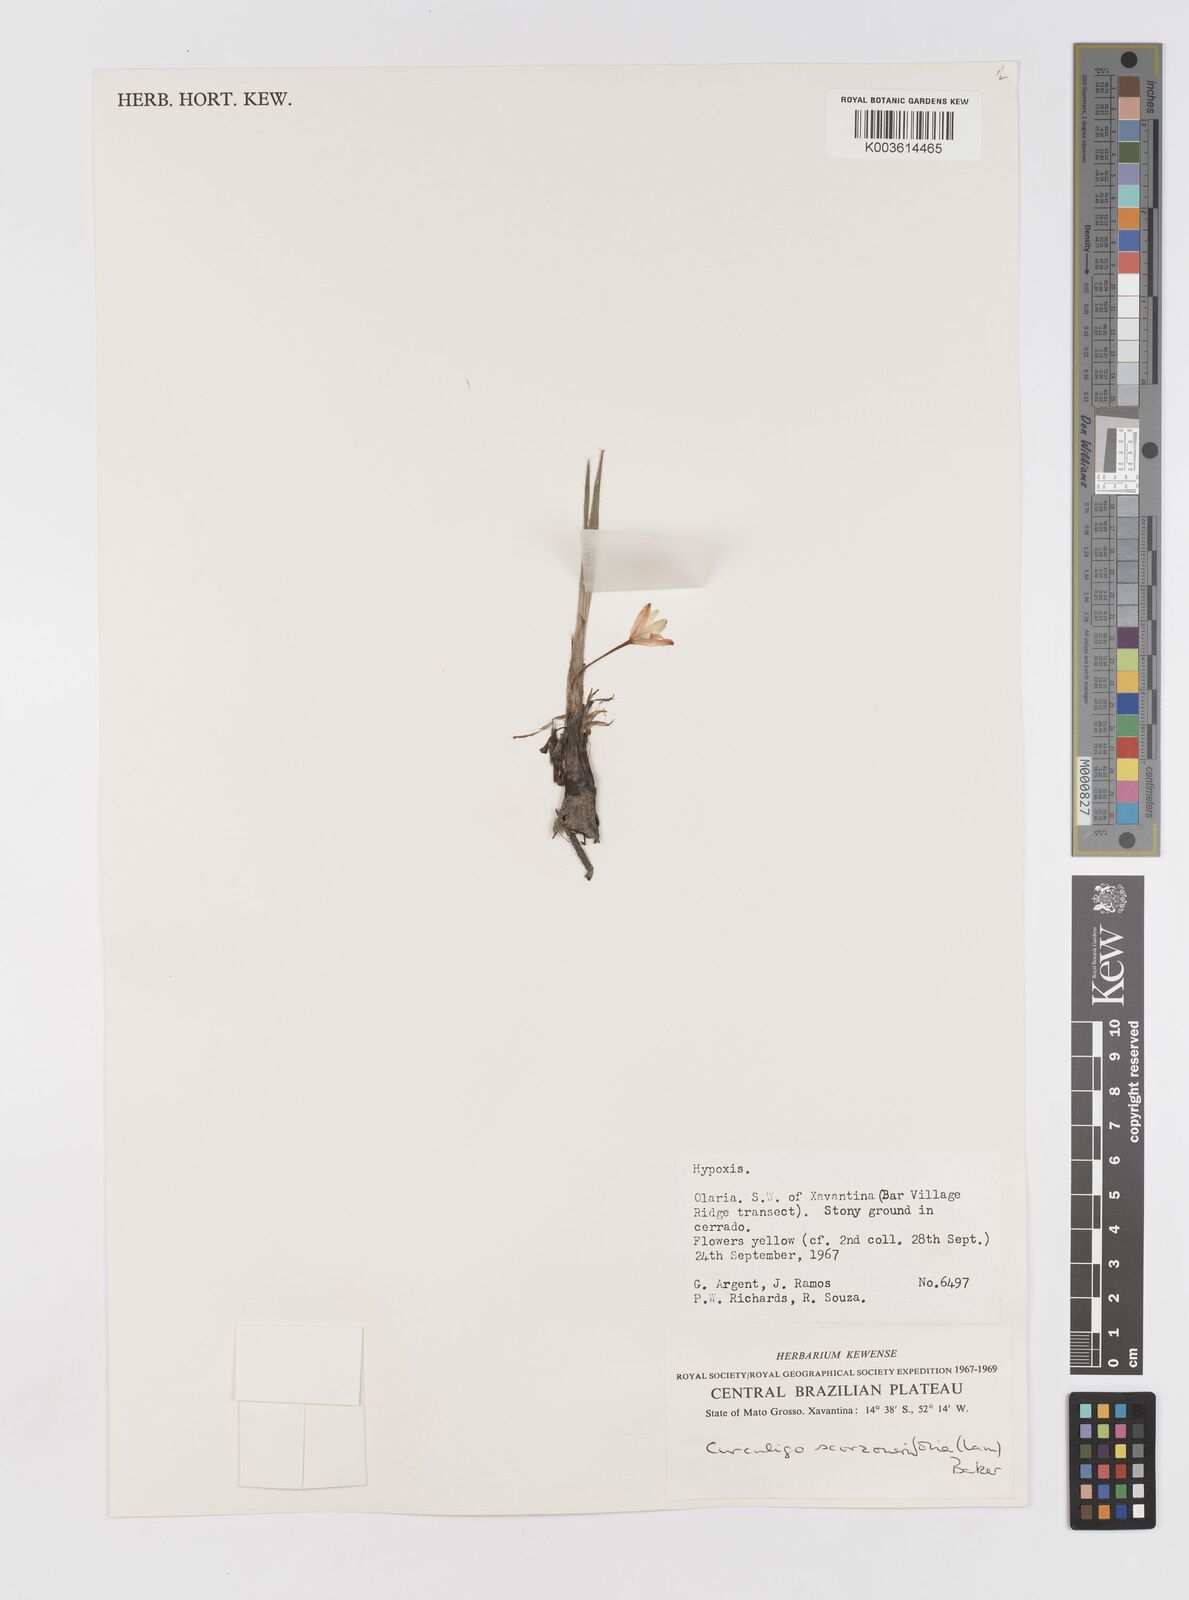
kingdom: Plantae
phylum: Tracheophyta
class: Liliopsida
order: Asparagales
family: Hypoxidaceae
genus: Curculigo
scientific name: Curculigo scorzonerifolia
